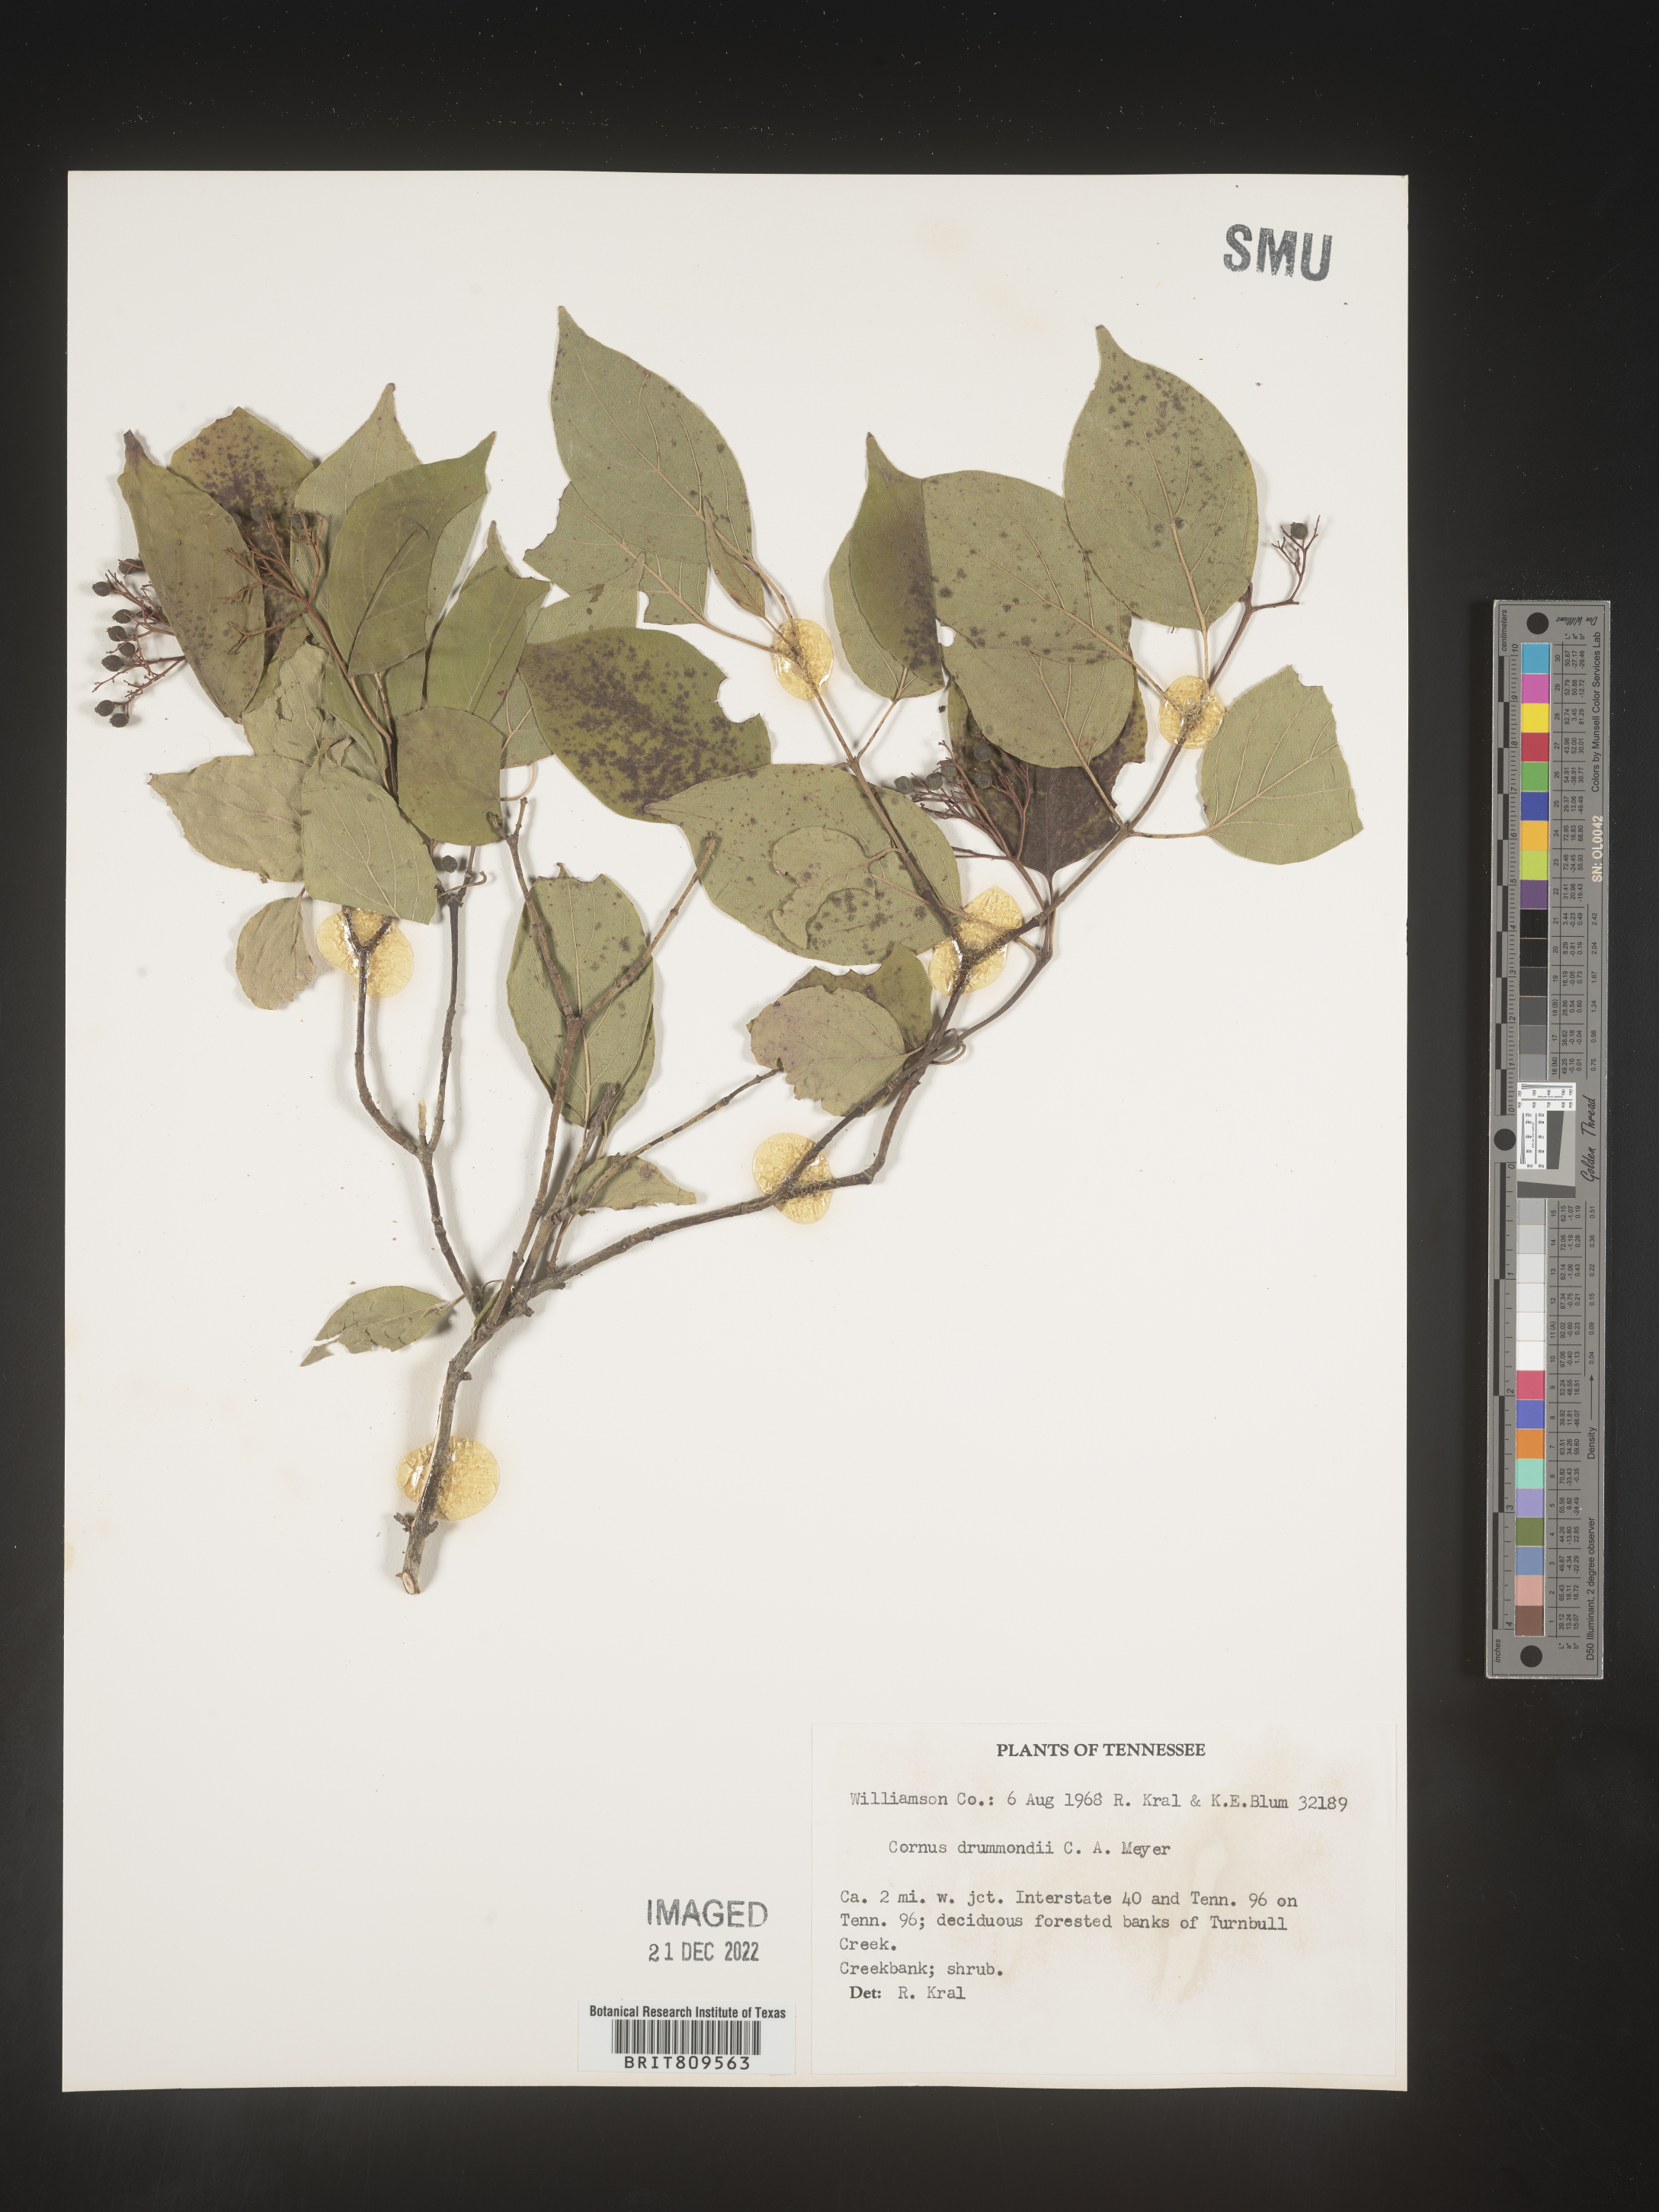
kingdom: Plantae
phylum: Tracheophyta
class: Magnoliopsida
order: Cornales
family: Cornaceae
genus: Cornus
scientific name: Cornus drummondii
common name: Rough-leaf dogwood
